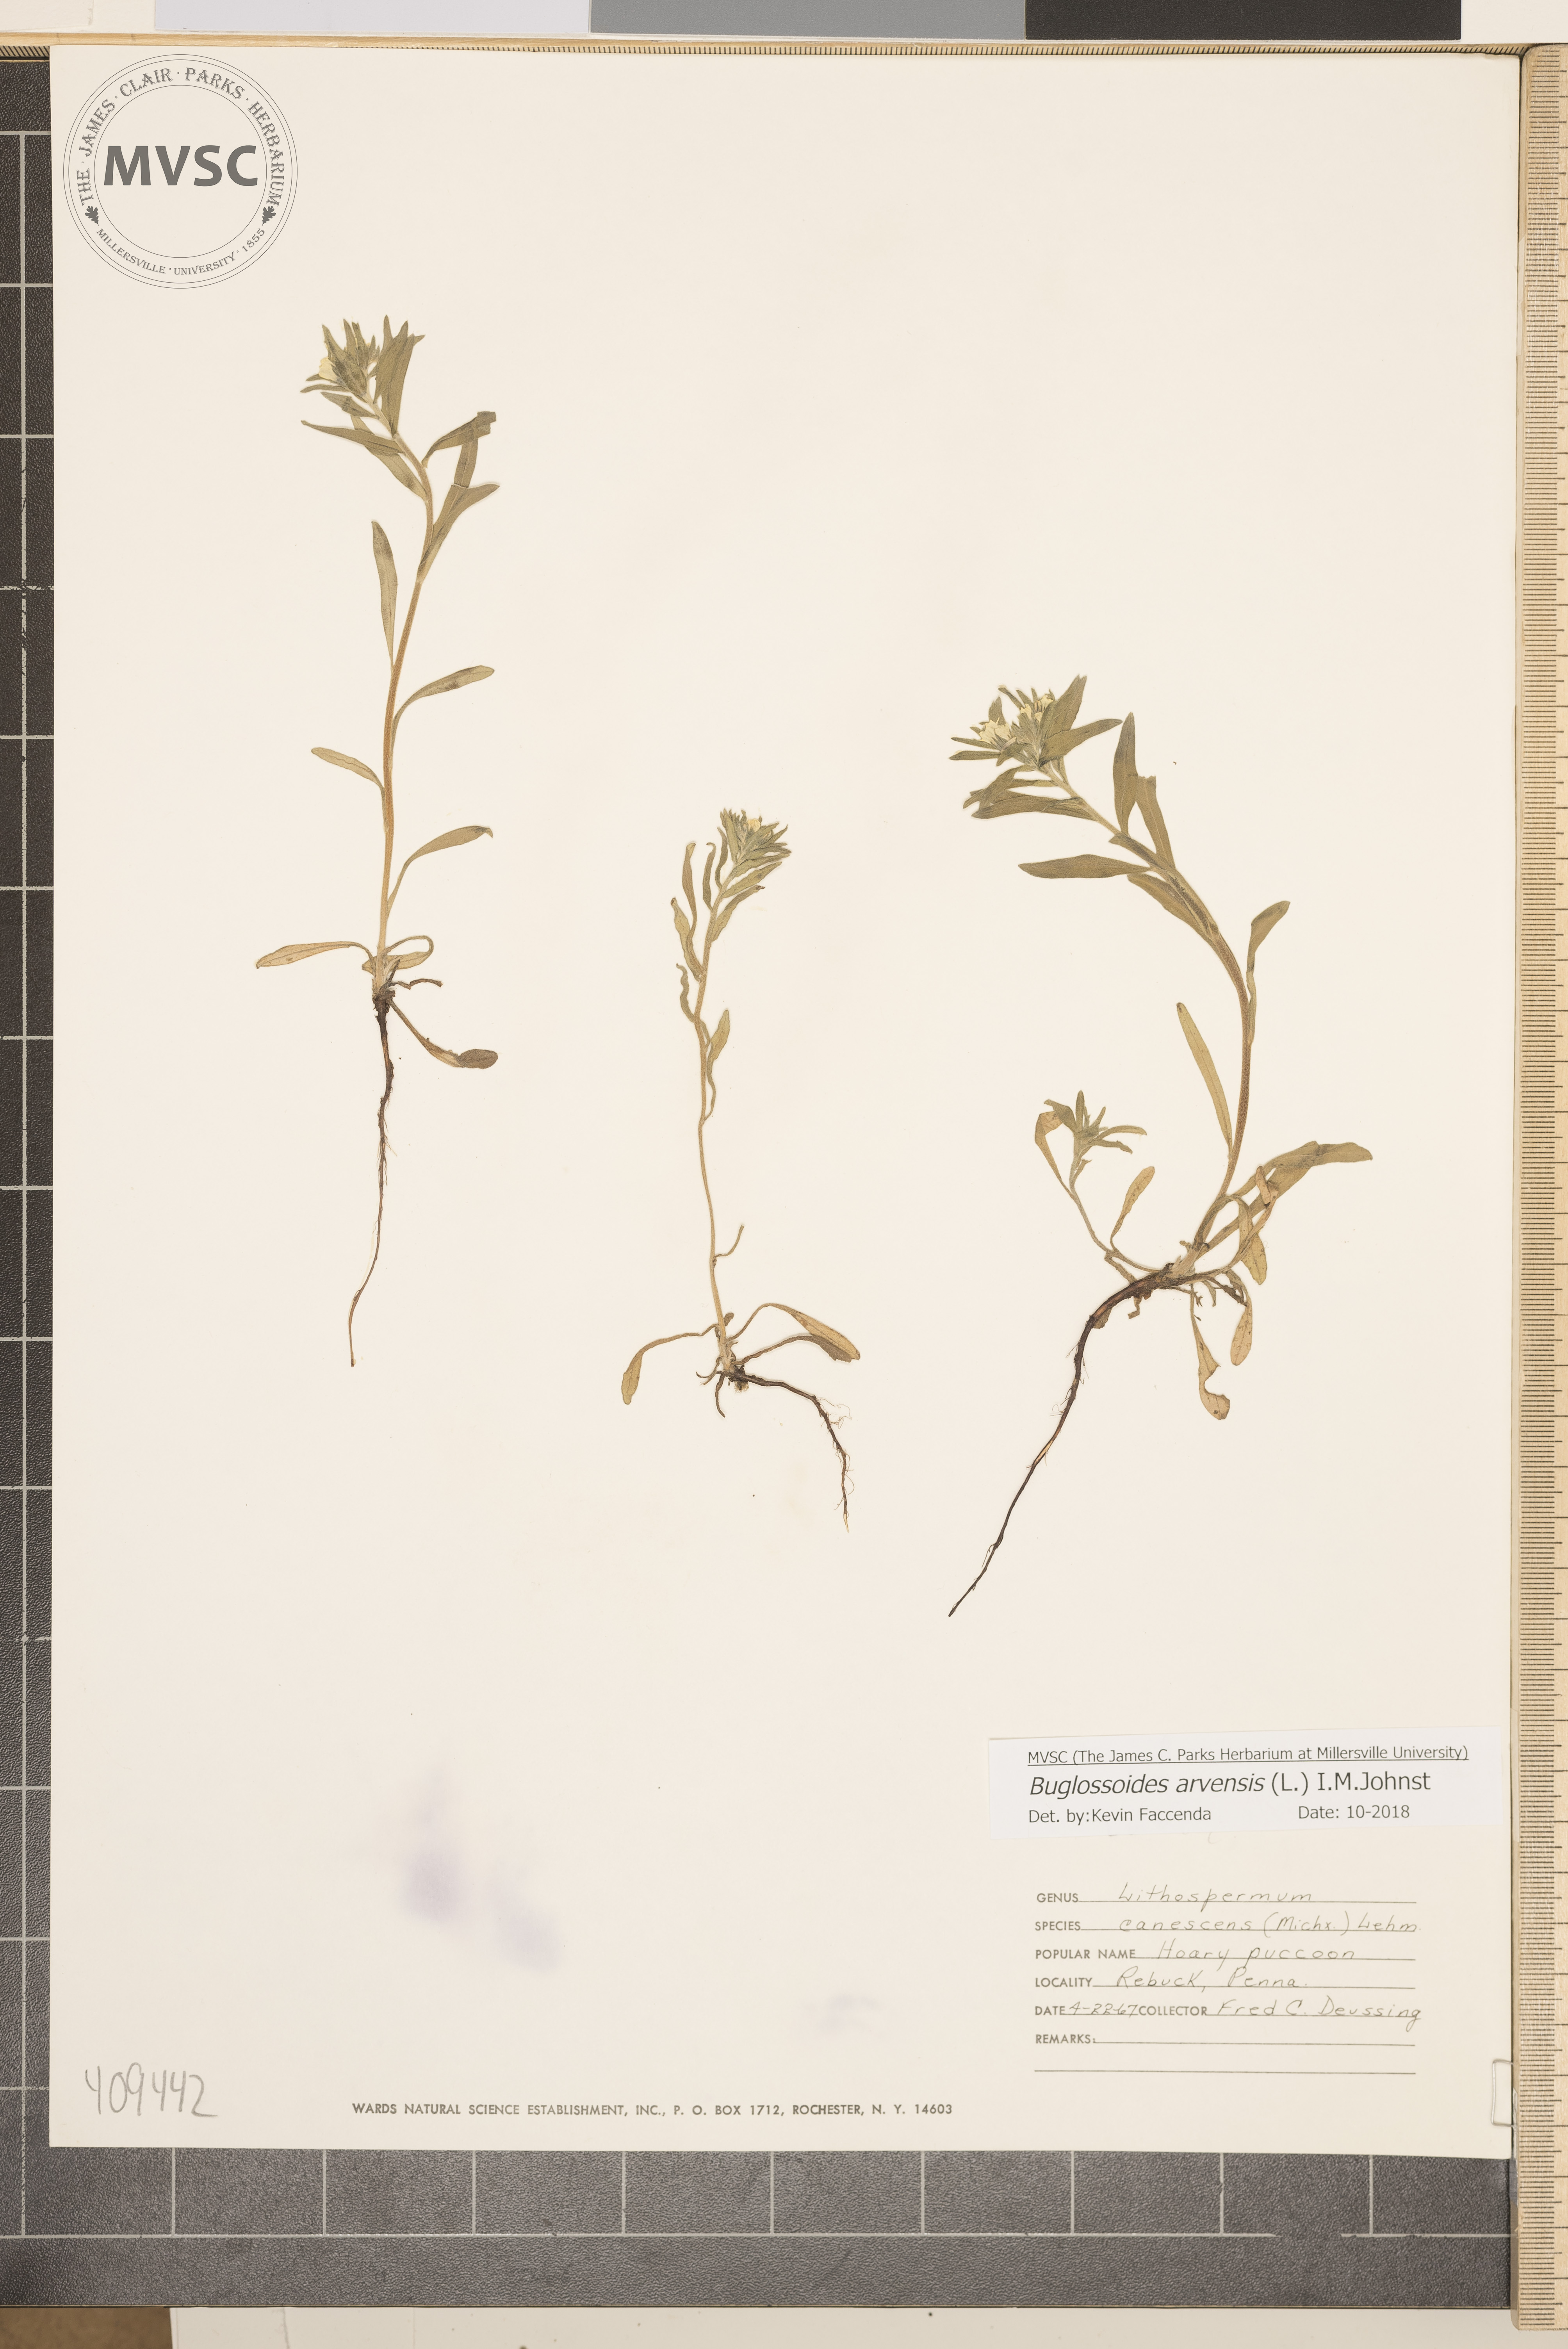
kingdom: Plantae
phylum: Tracheophyta
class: Magnoliopsida
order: Boraginales
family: Boraginaceae
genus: Buglossoides
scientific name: Buglossoides arvensis
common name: Corn gromwell
